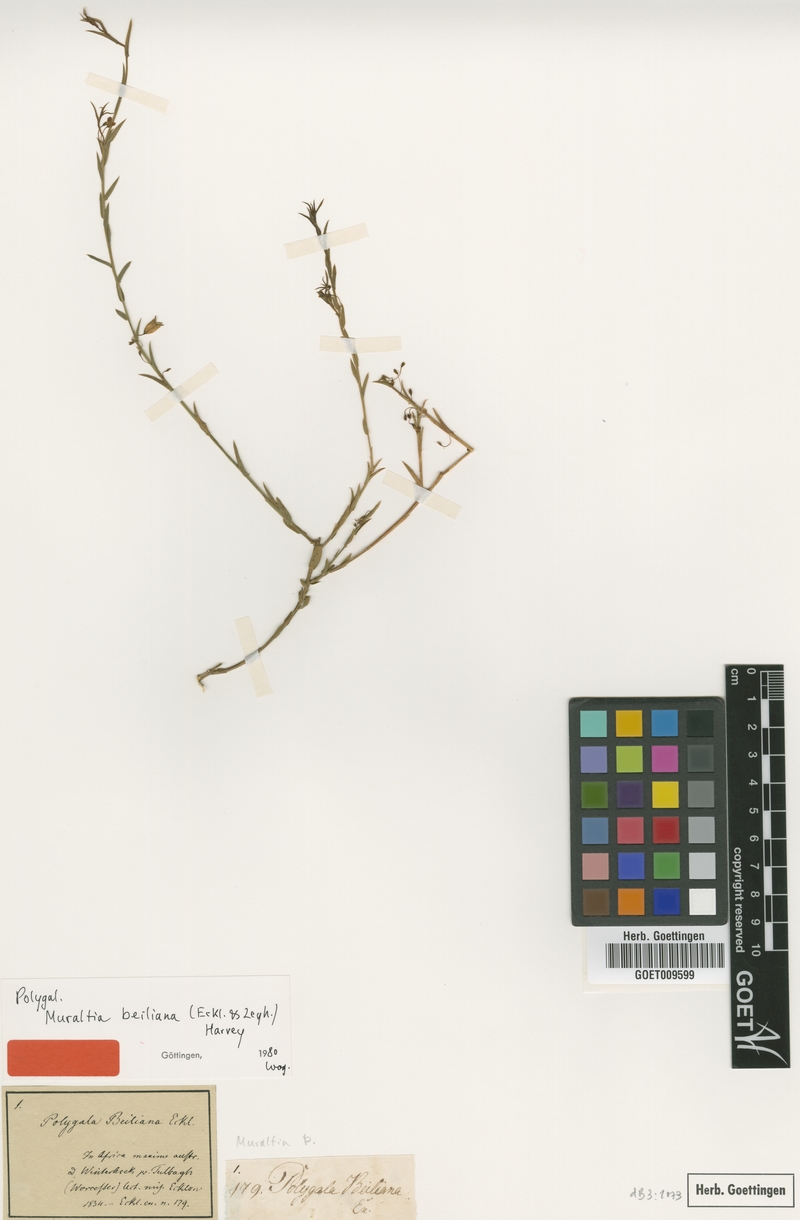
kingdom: Plantae
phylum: Tracheophyta
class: Magnoliopsida
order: Fabales
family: Polygalaceae
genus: Muraltia
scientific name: Muraltia muraltioides
